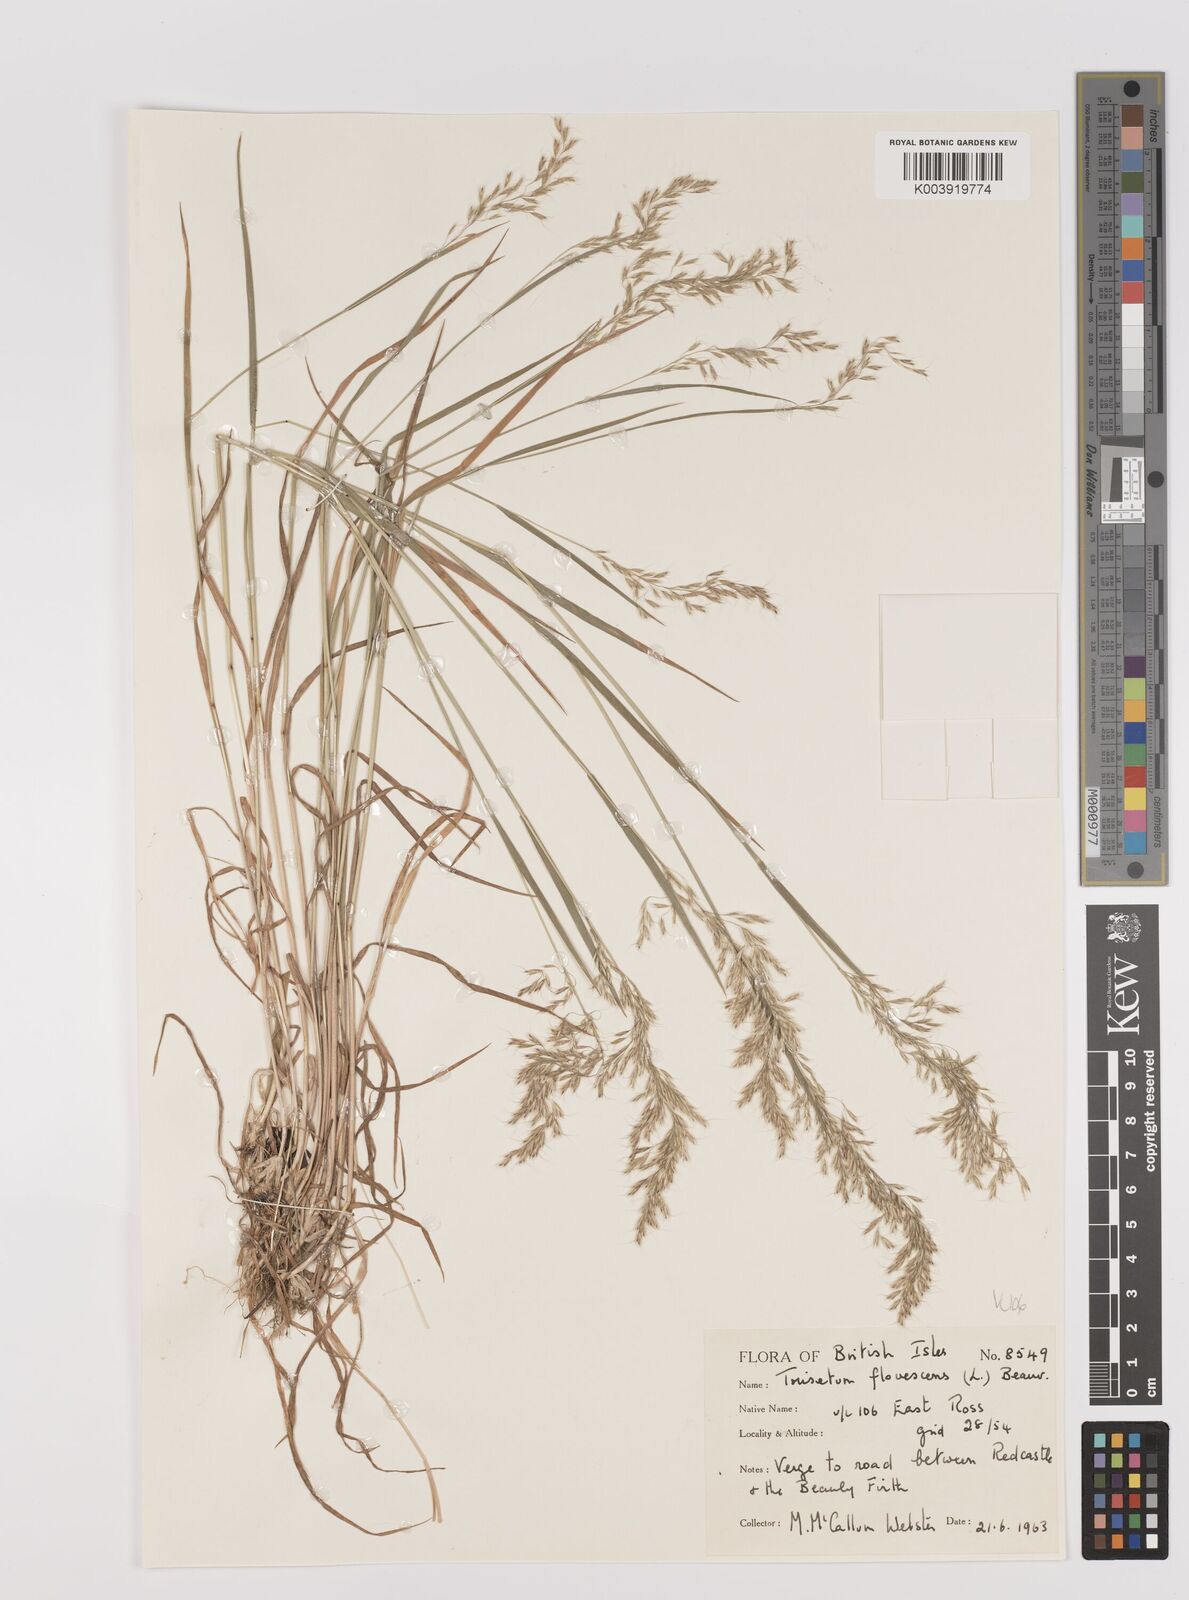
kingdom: Plantae
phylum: Tracheophyta
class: Liliopsida
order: Poales
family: Poaceae
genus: Trisetum
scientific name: Trisetum flavescens
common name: Yellow oat-grass
